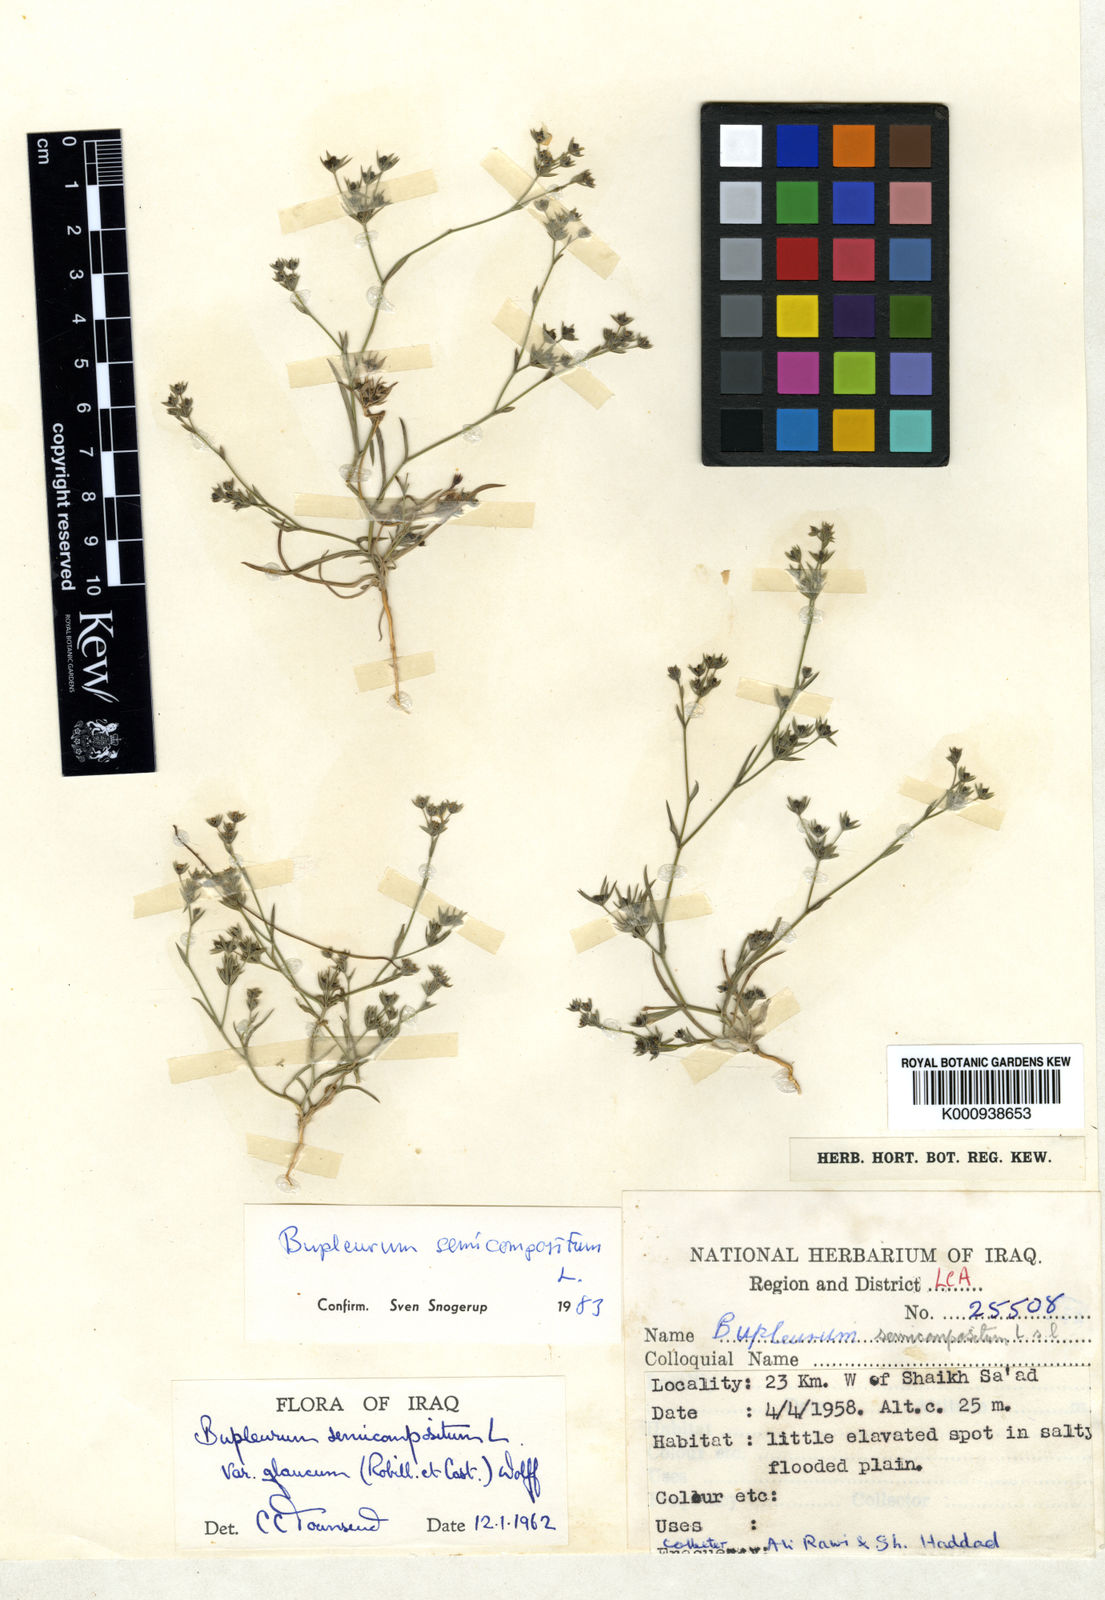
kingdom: Plantae
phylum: Tracheophyta
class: Magnoliopsida
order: Apiales
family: Apiaceae
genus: Bupleurum
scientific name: Bupleurum semicompositum
